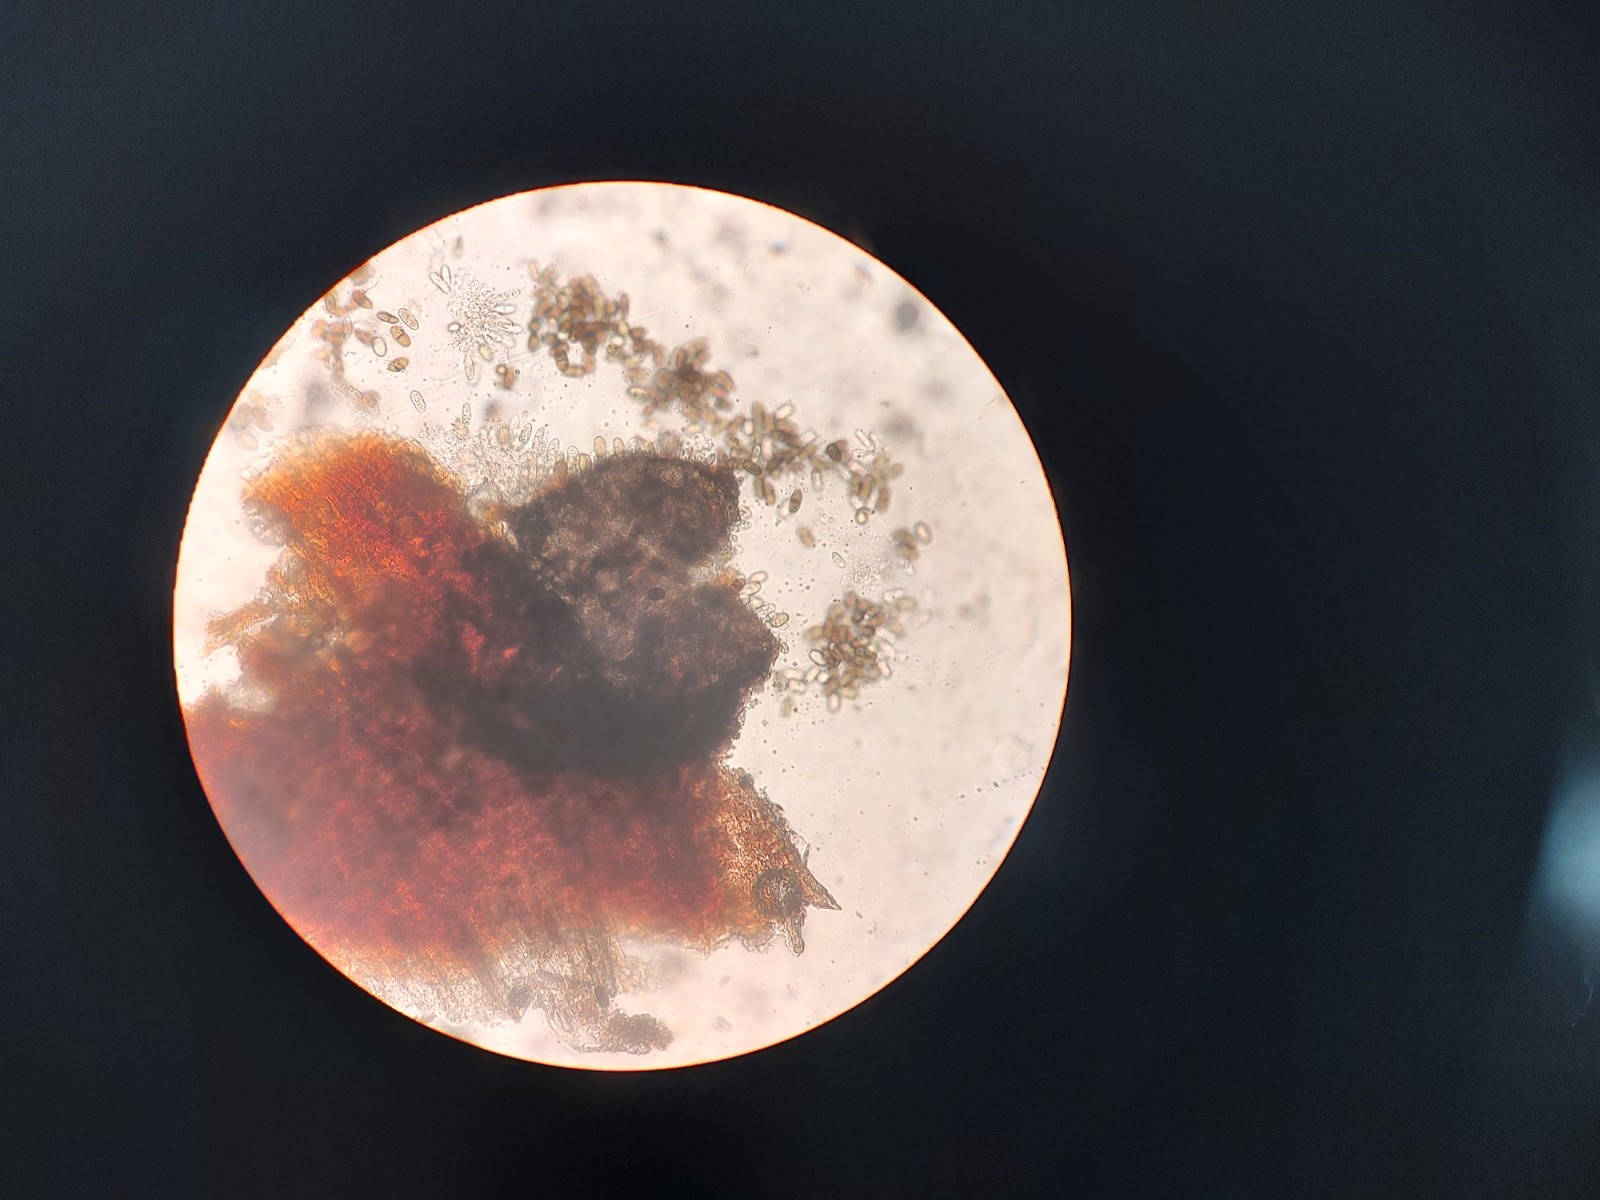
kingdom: Fungi
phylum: Ascomycota
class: Dothideomycetes
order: Botryosphaeriales
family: Botryosphaeriaceae
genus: Diplodia
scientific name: Diplodia salicina
